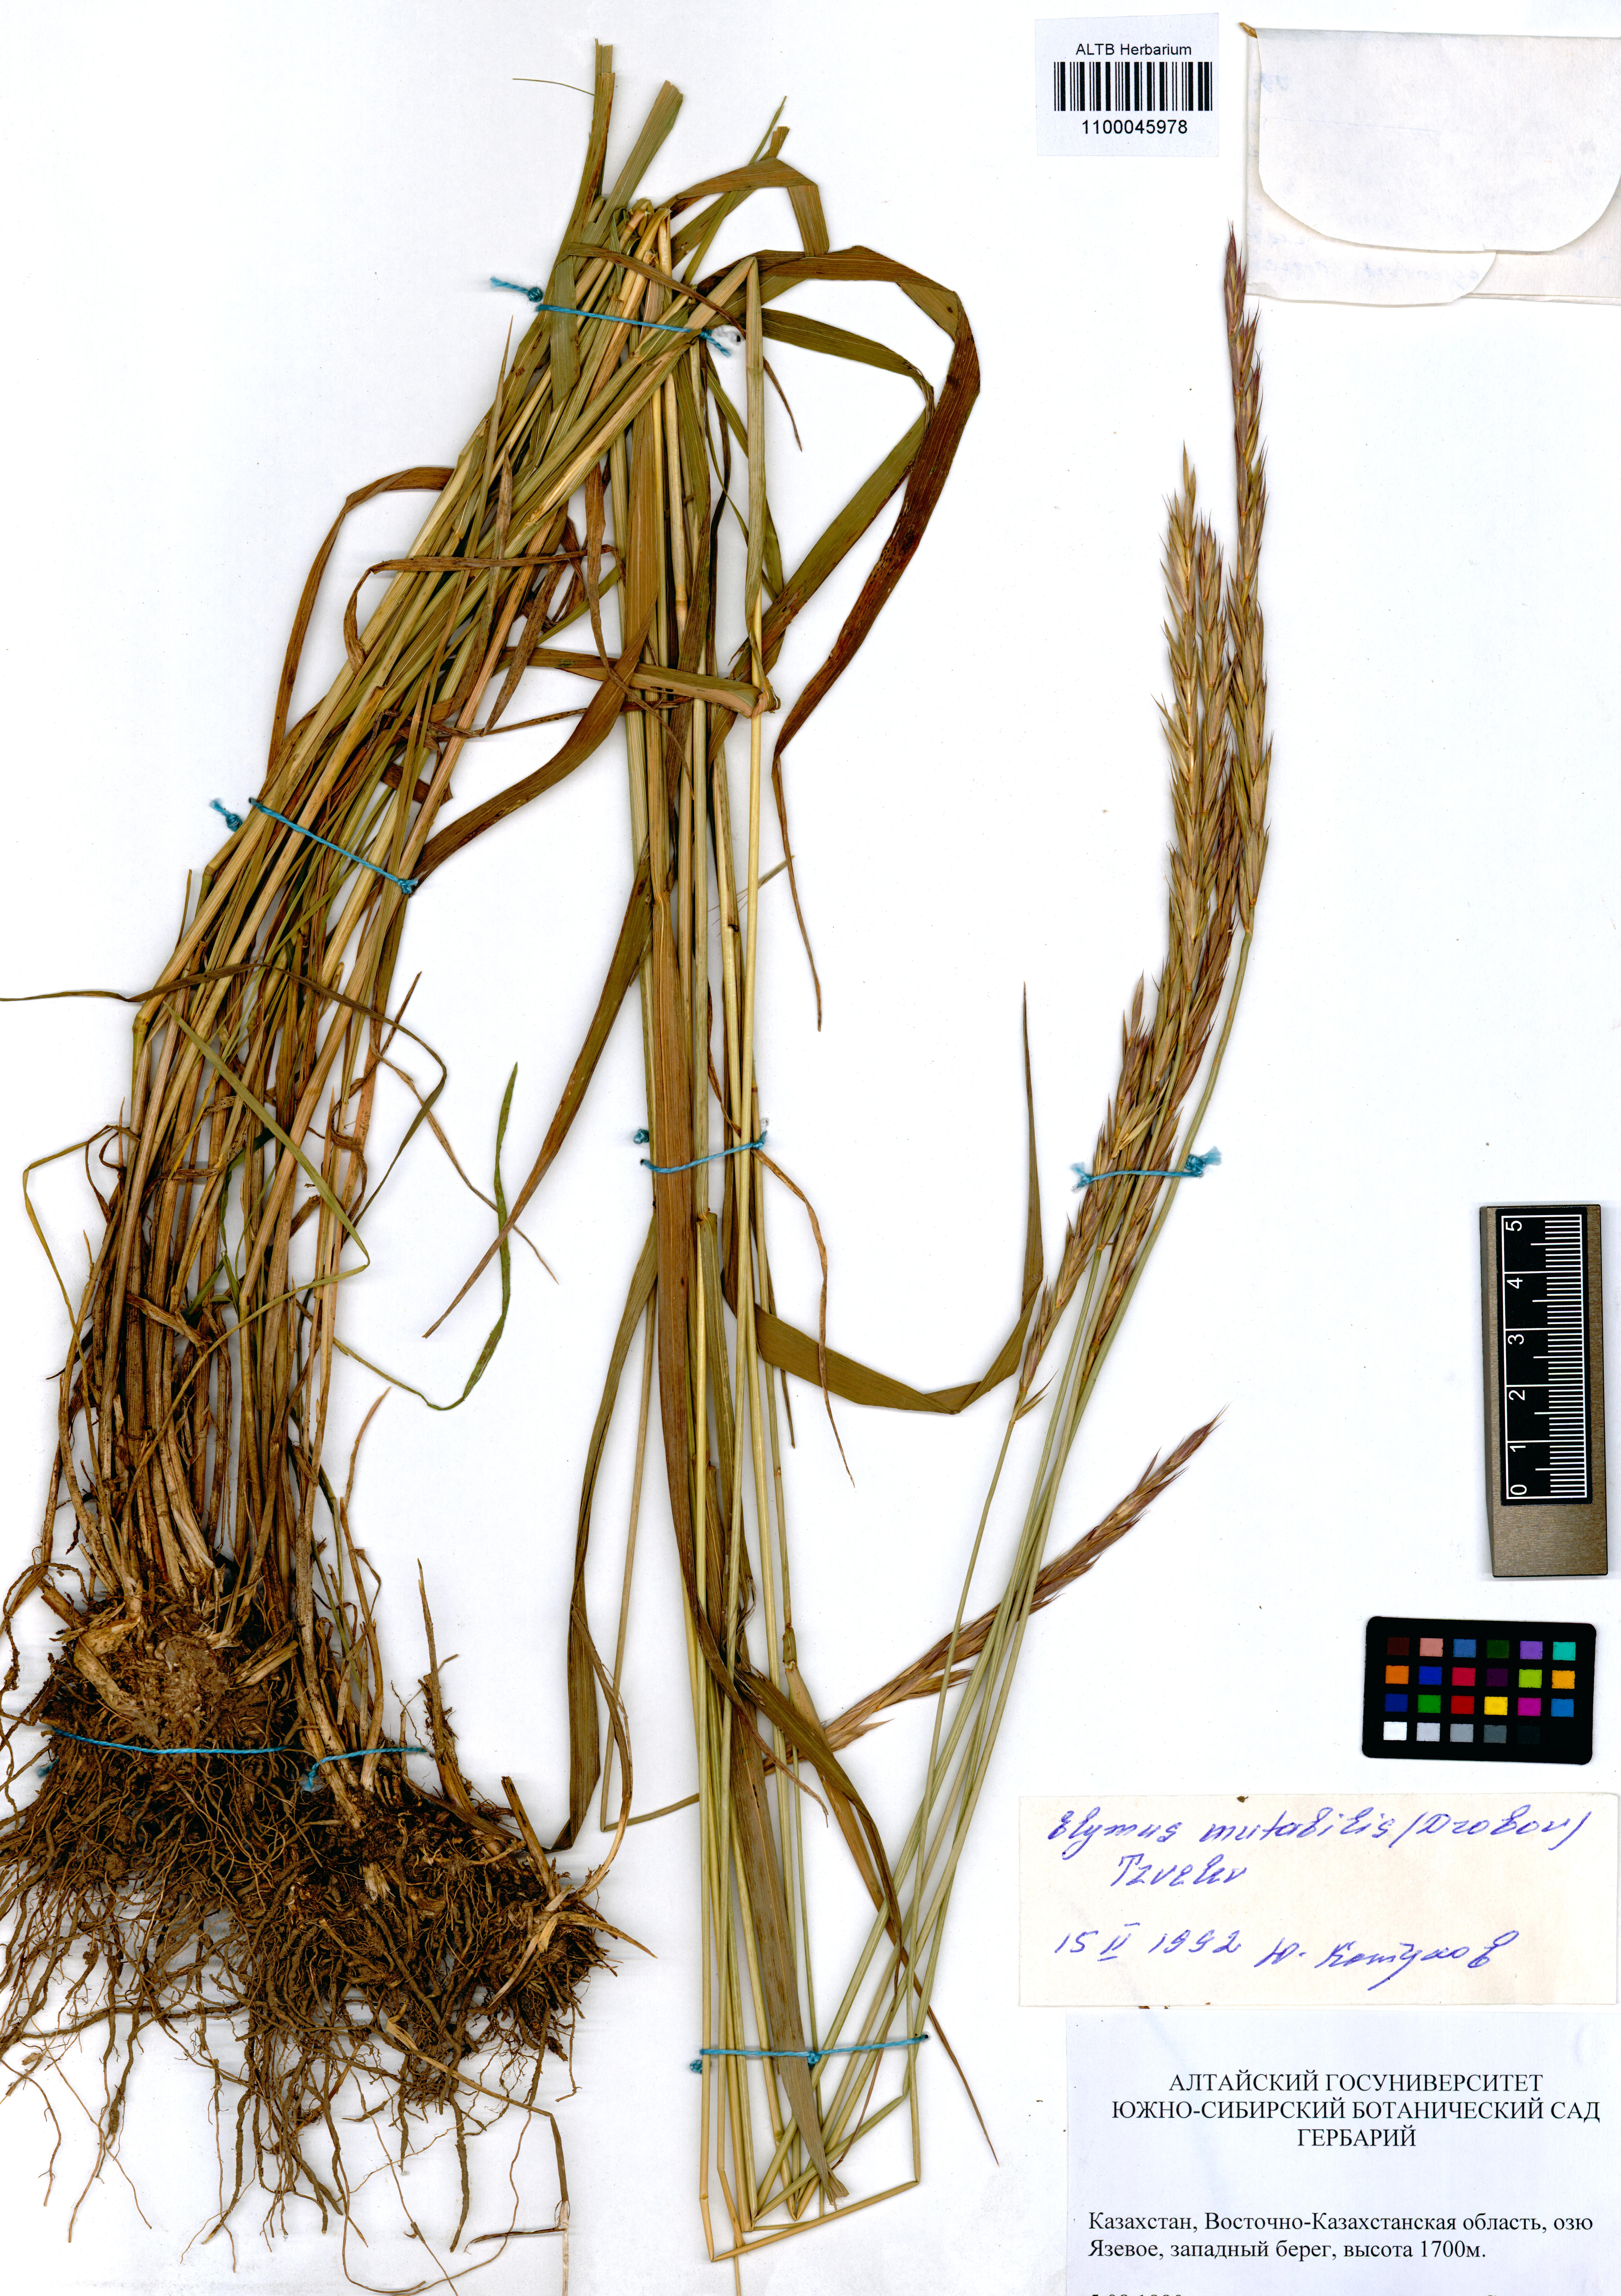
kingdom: Plantae
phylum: Tracheophyta
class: Liliopsida
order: Poales
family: Poaceae
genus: Elymus
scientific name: Elymus mutabilis
